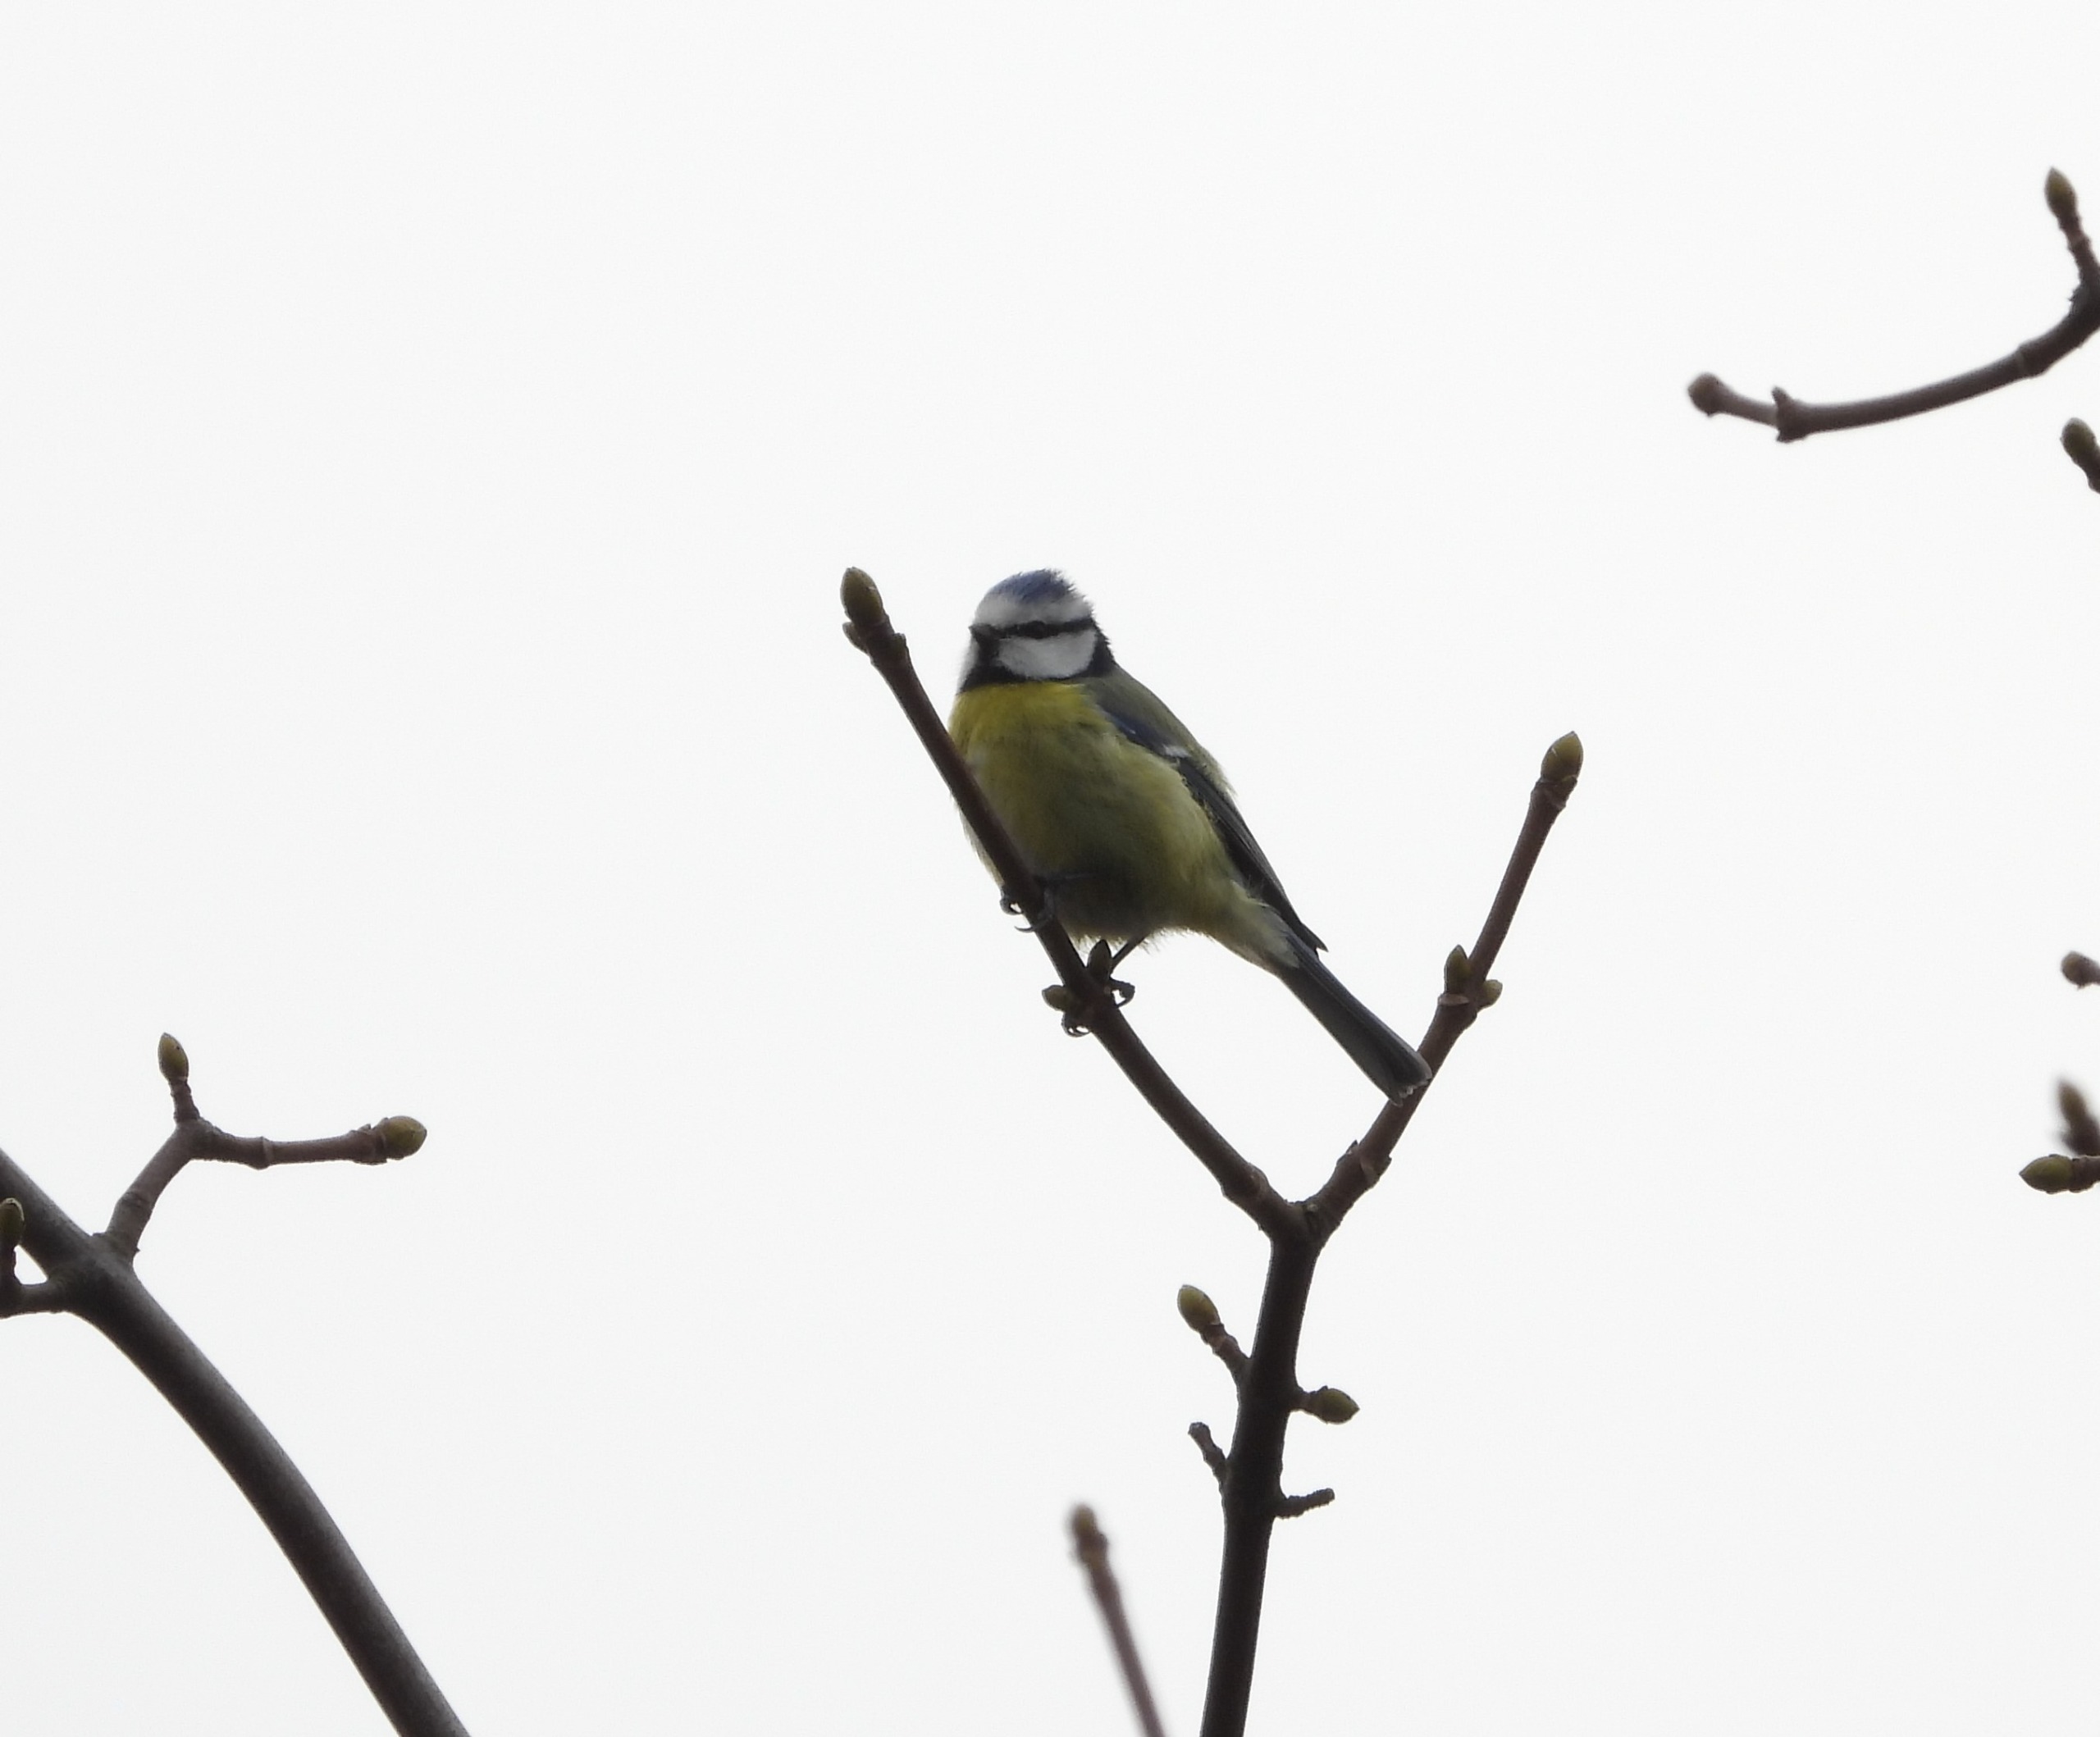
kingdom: Animalia
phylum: Chordata
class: Aves
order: Passeriformes
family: Paridae
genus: Cyanistes
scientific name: Cyanistes caeruleus
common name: Blåmejse
